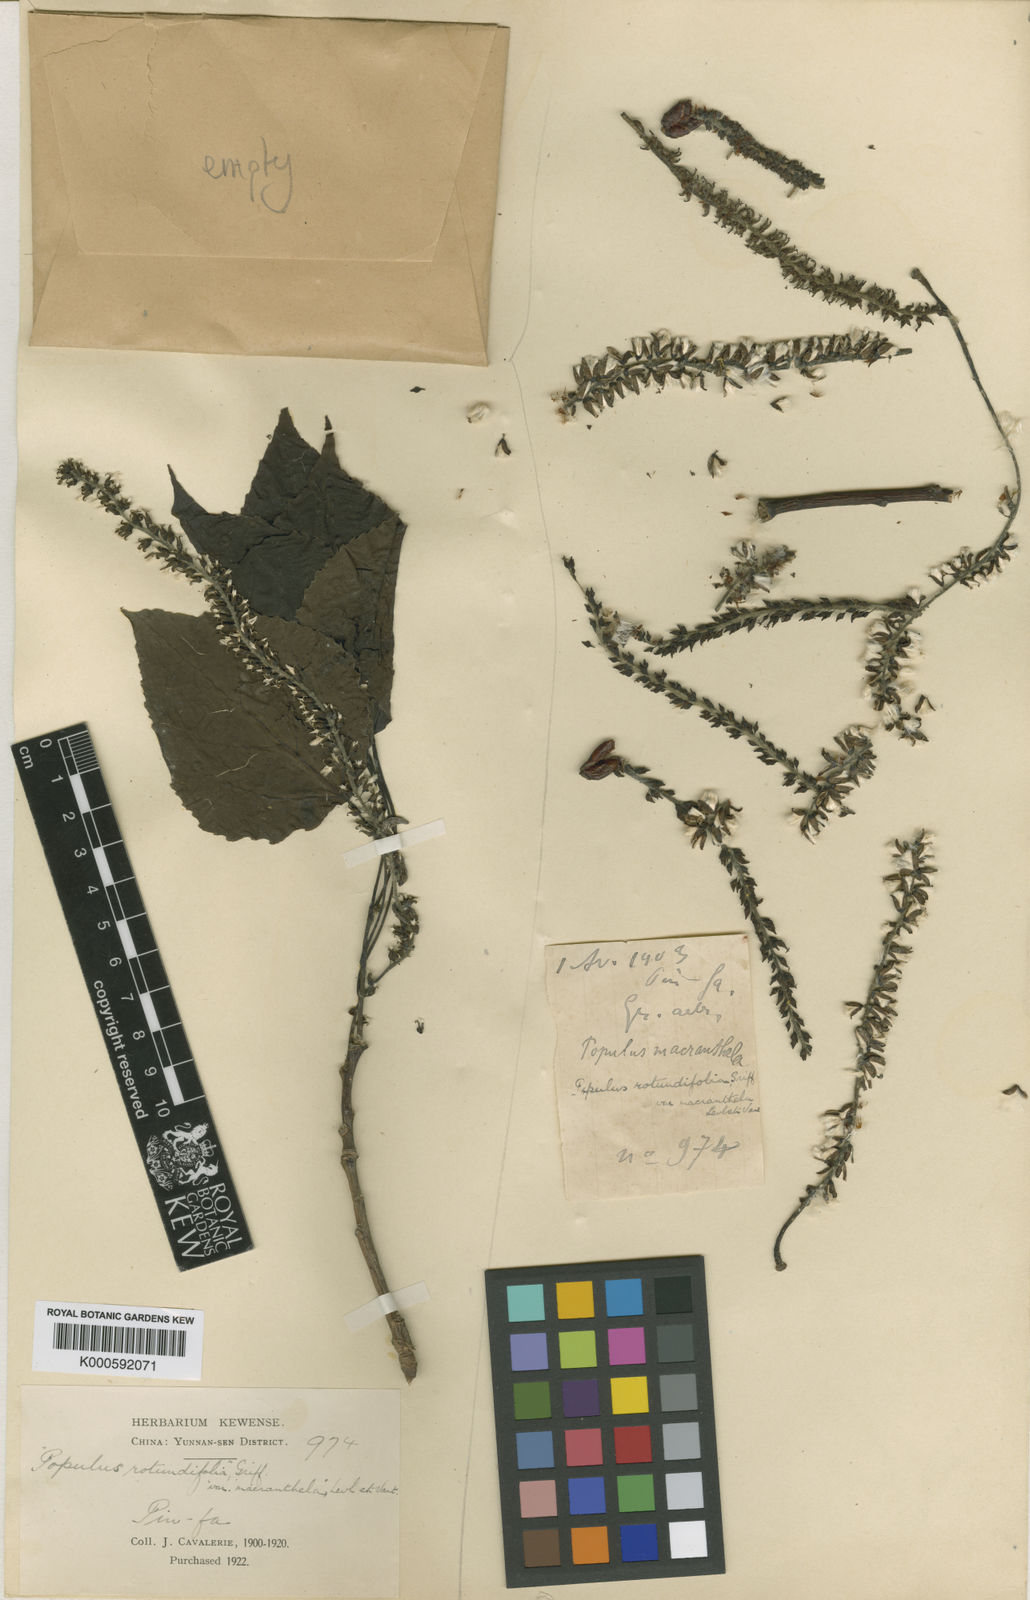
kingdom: Plantae
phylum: Tracheophyta
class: Magnoliopsida
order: Malpighiales
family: Salicaceae
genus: Populus
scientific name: Populus adenopoda
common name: Chinese aspen
